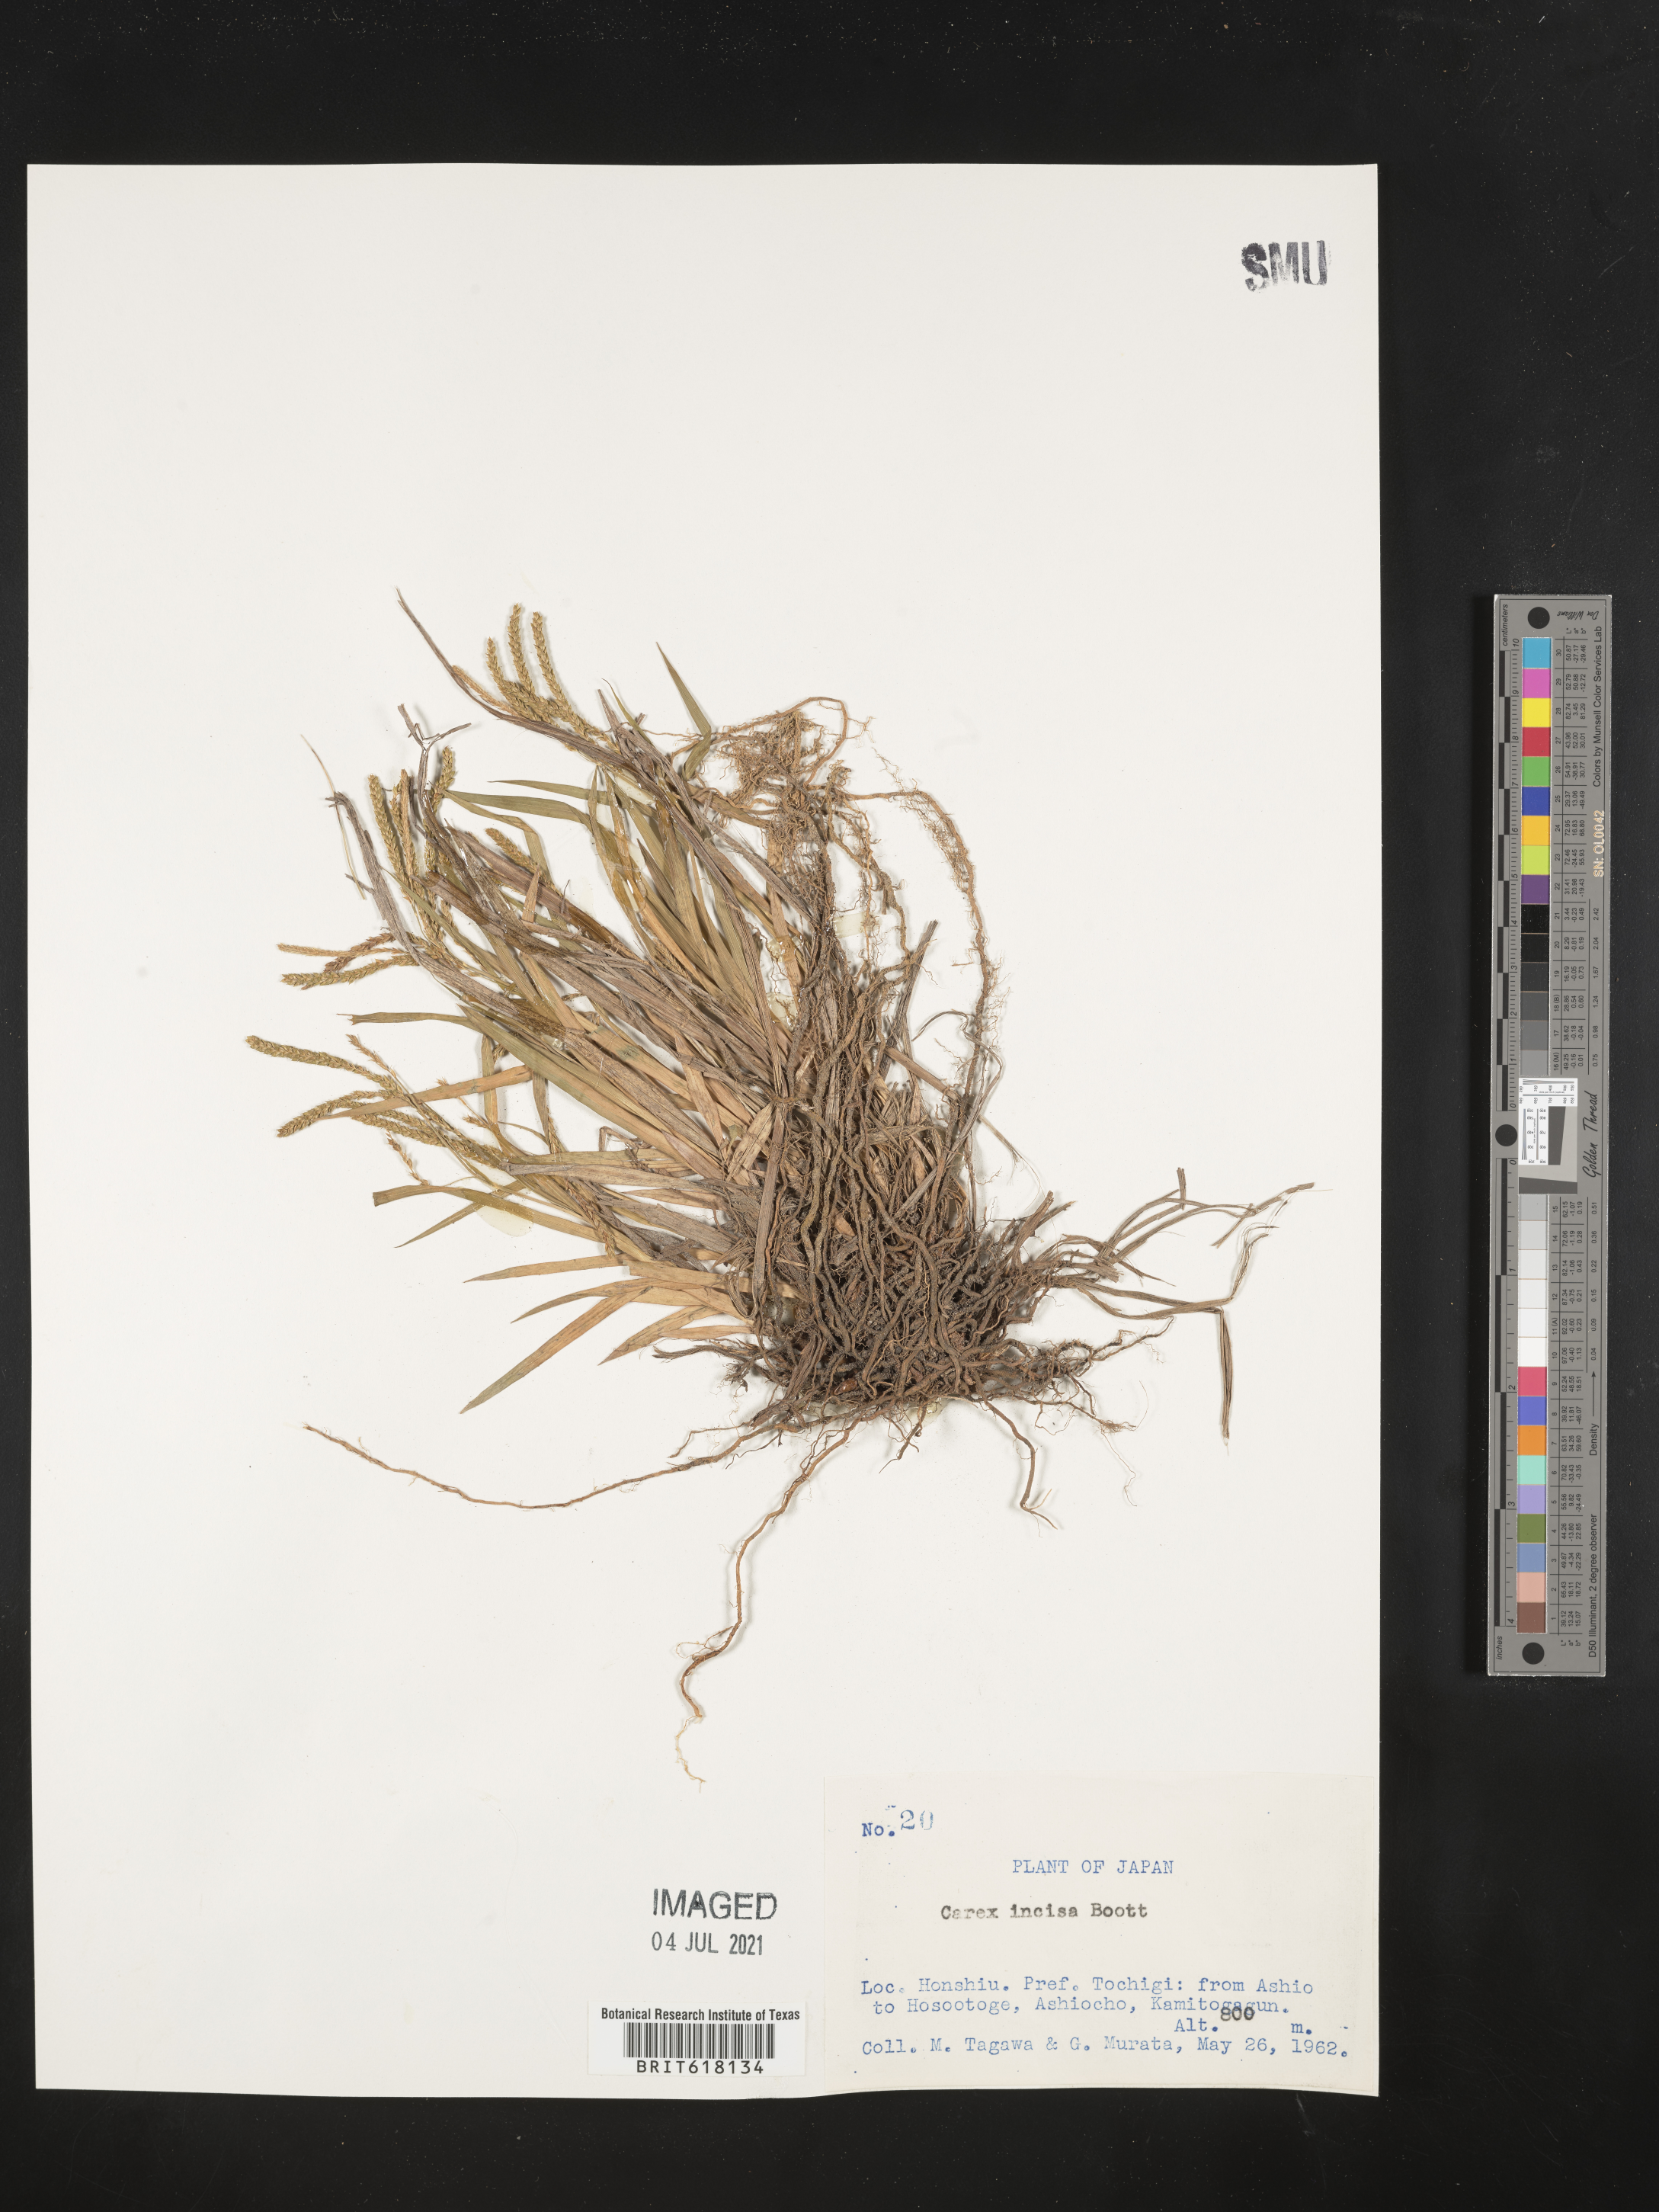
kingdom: Plantae
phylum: Tracheophyta
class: Liliopsida
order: Poales
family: Cyperaceae
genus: Carex
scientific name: Carex incisa
